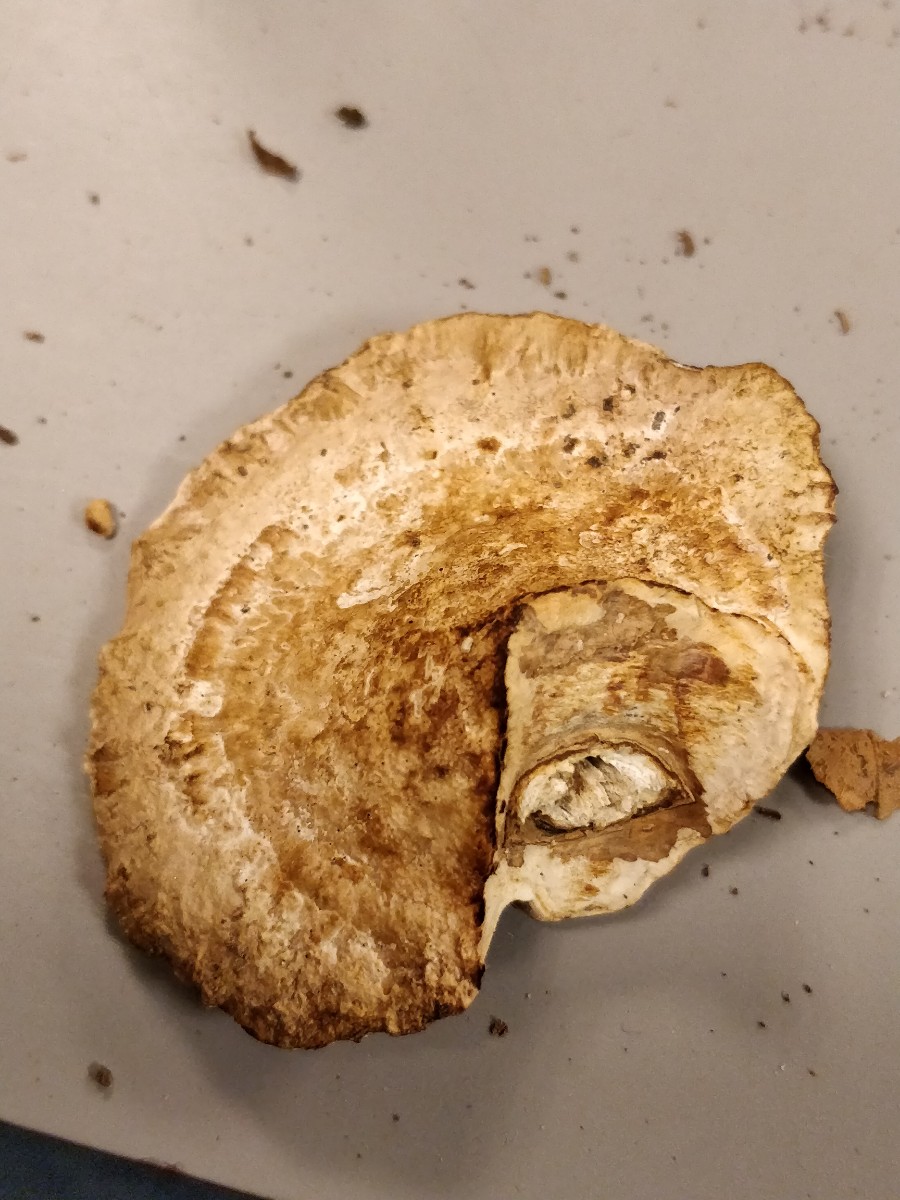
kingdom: Fungi
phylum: Basidiomycota
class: Agaricomycetes
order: Polyporales
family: Polyporaceae
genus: Daedaleopsis
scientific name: Daedaleopsis confragosa
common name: rødmende læderporesvamp
